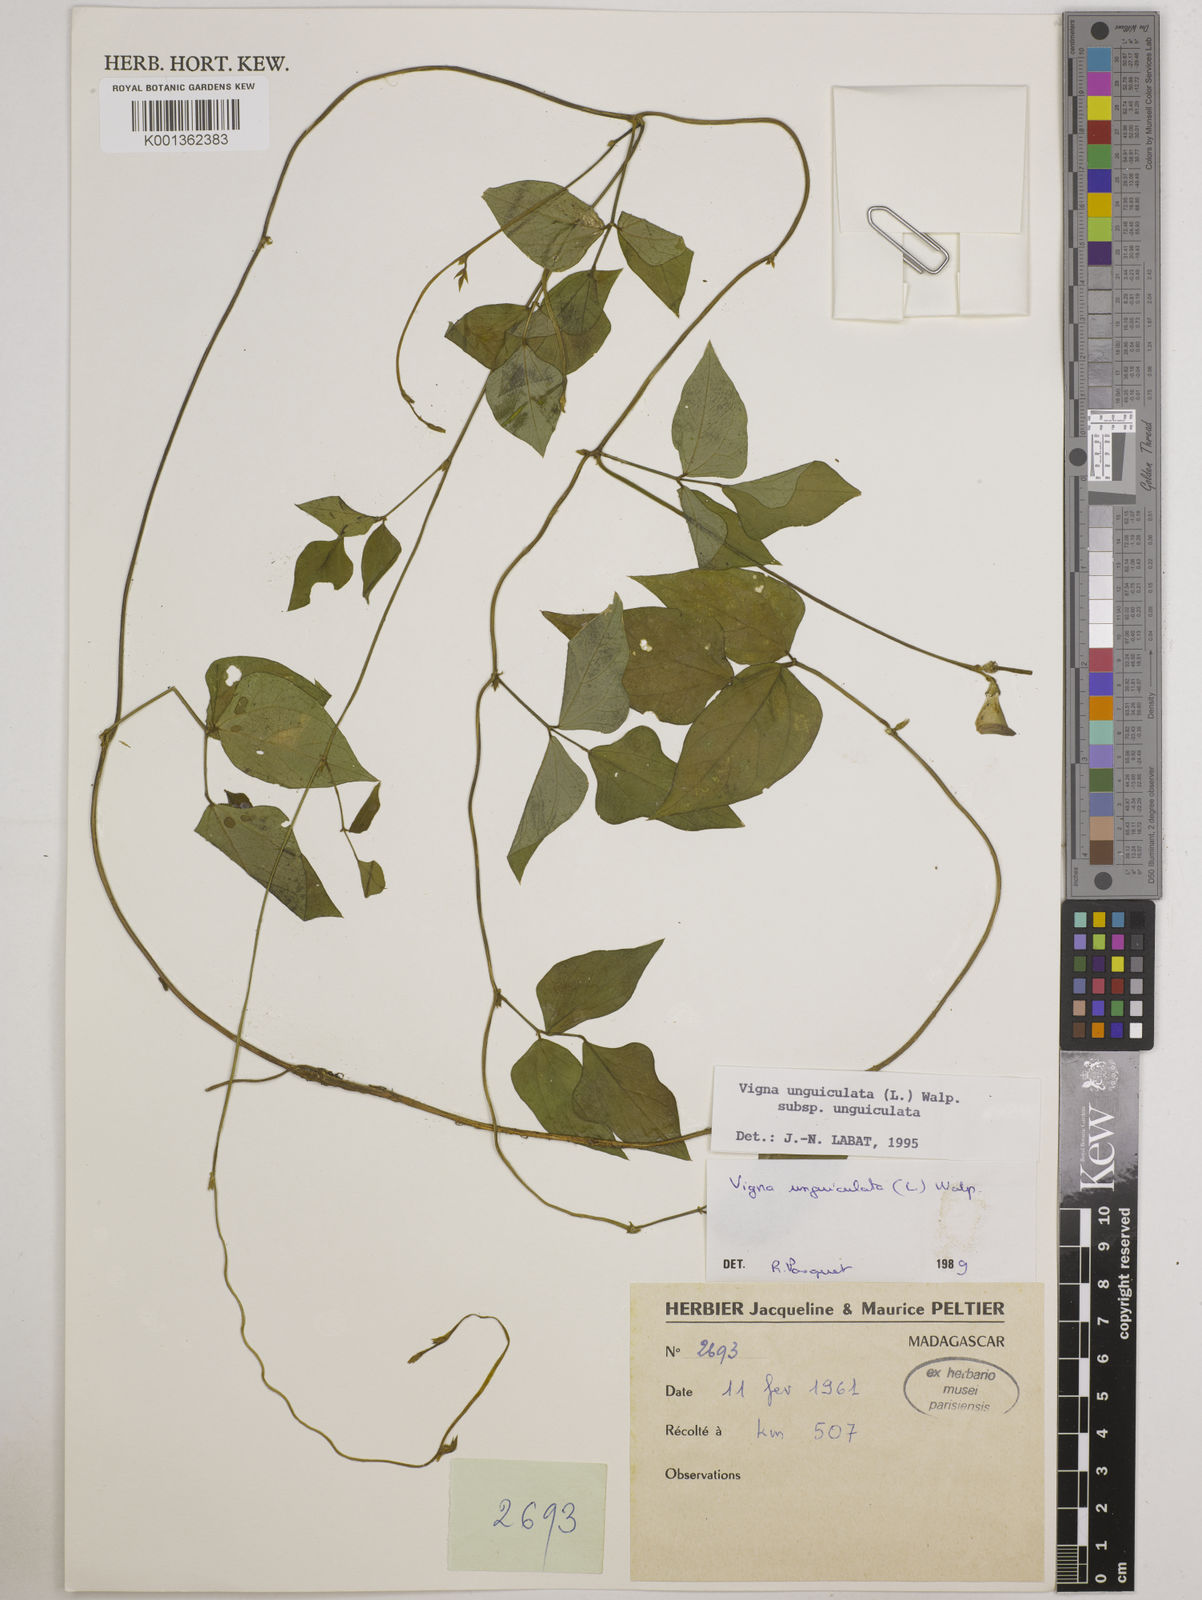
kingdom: Plantae
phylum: Tracheophyta
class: Magnoliopsida
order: Fabales
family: Fabaceae
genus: Vigna
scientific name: Vigna
